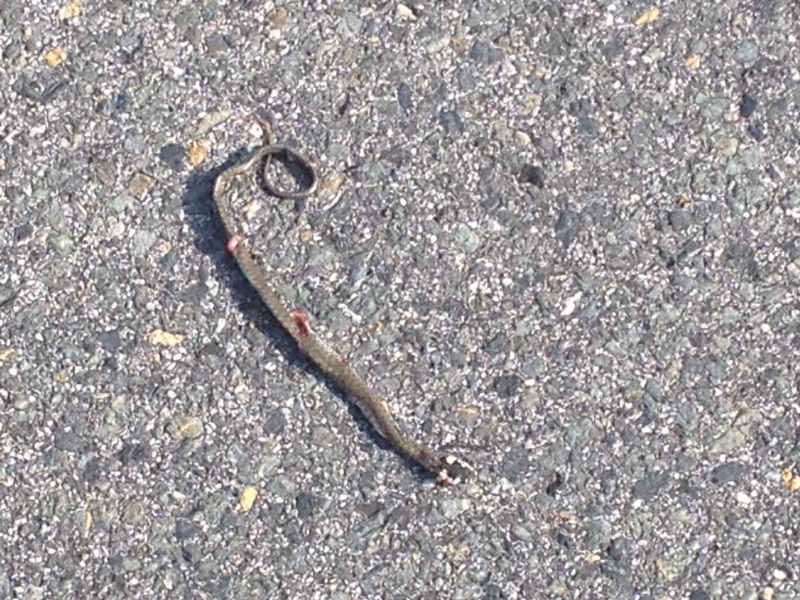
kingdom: Animalia
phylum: Chordata
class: Squamata
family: Colubridae
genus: Natrix
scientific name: Natrix natrix
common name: Grass snake
